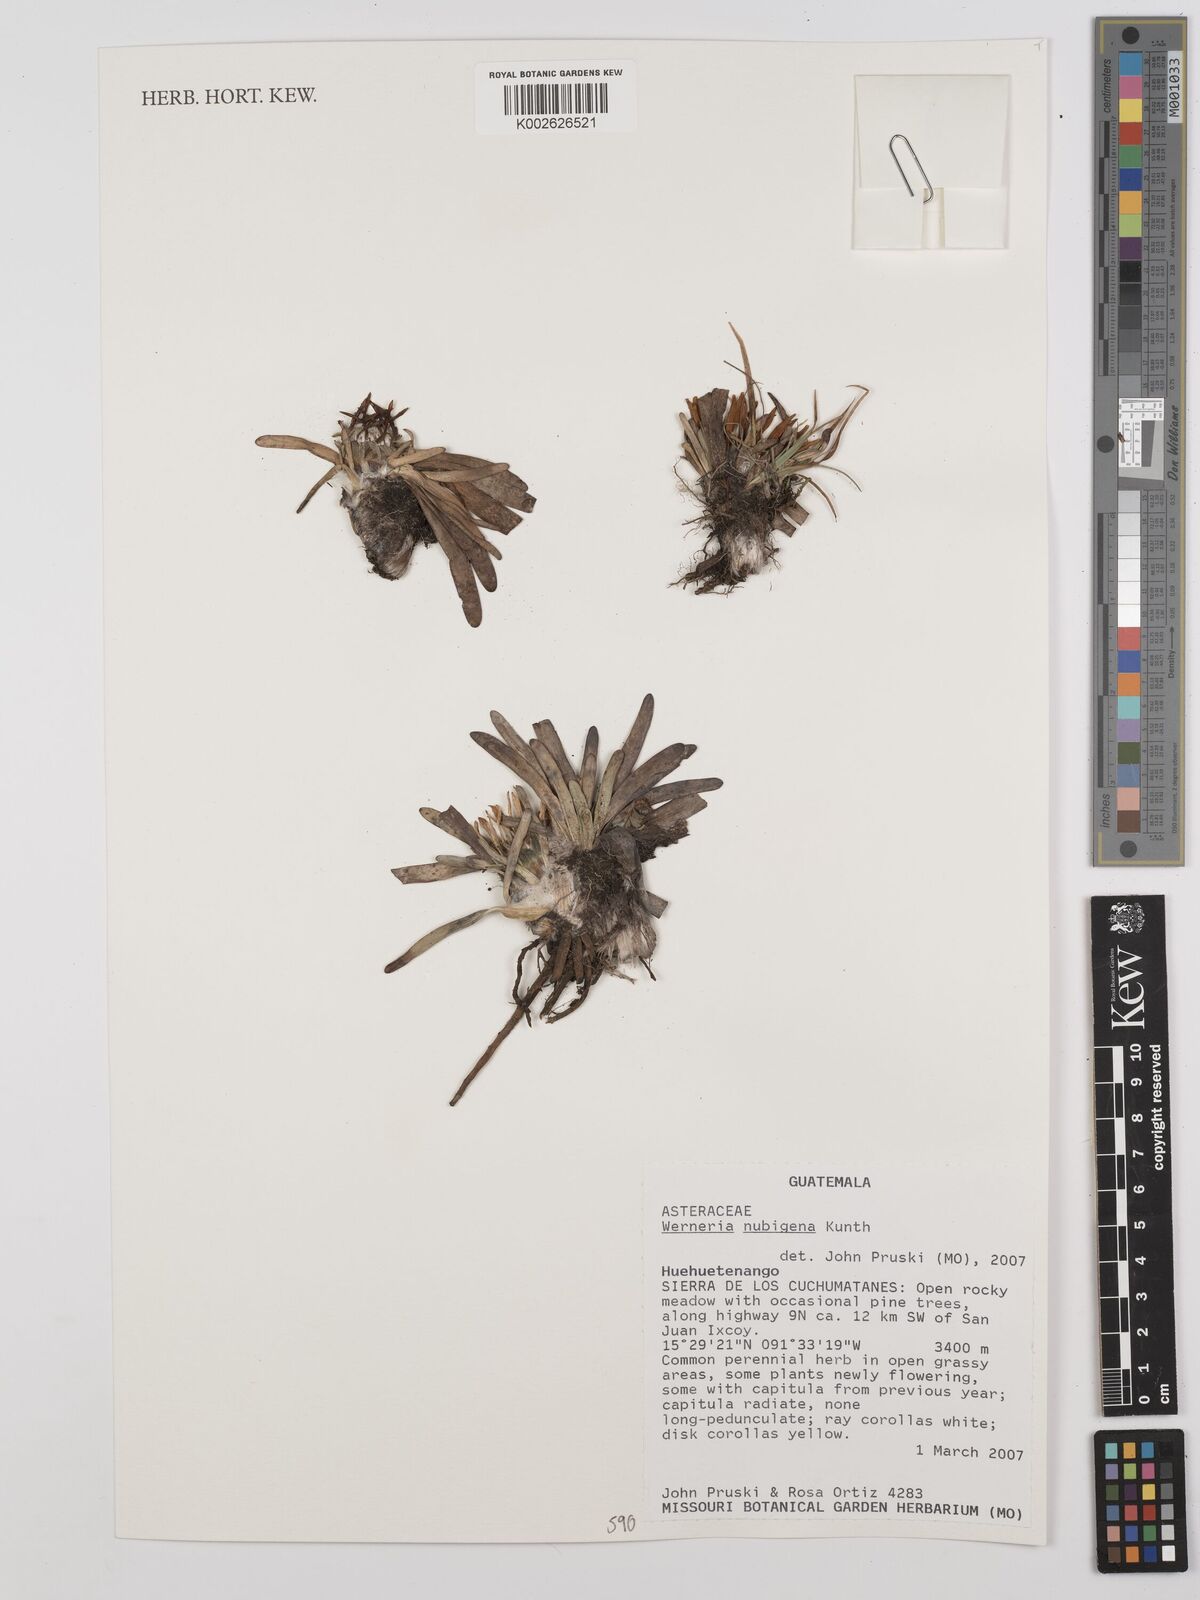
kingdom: Plantae
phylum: Tracheophyta
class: Magnoliopsida
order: Asterales
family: Asteraceae
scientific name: Asteraceae
